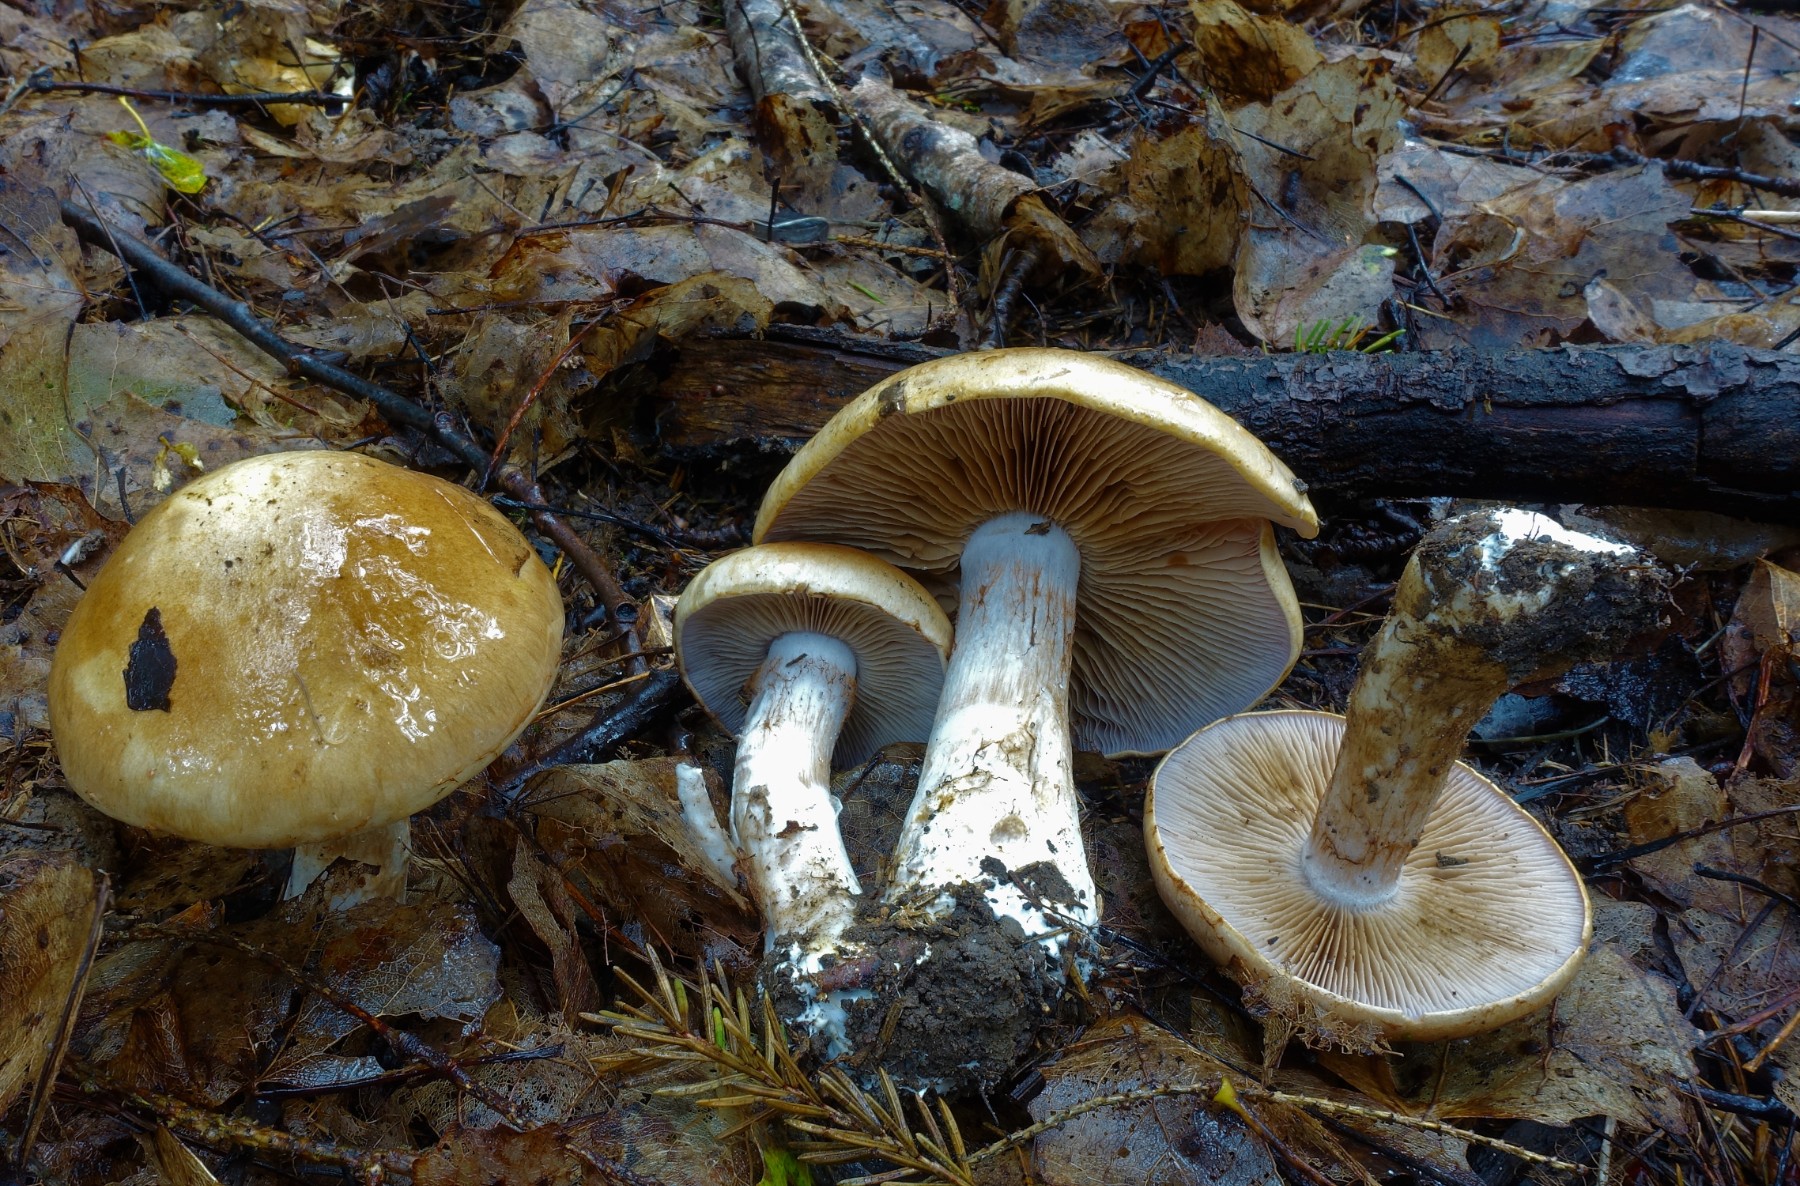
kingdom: Fungi
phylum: Basidiomycota
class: Agaricomycetes
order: Agaricales
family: Cortinariaceae
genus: Cortinarius
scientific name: Cortinarius
